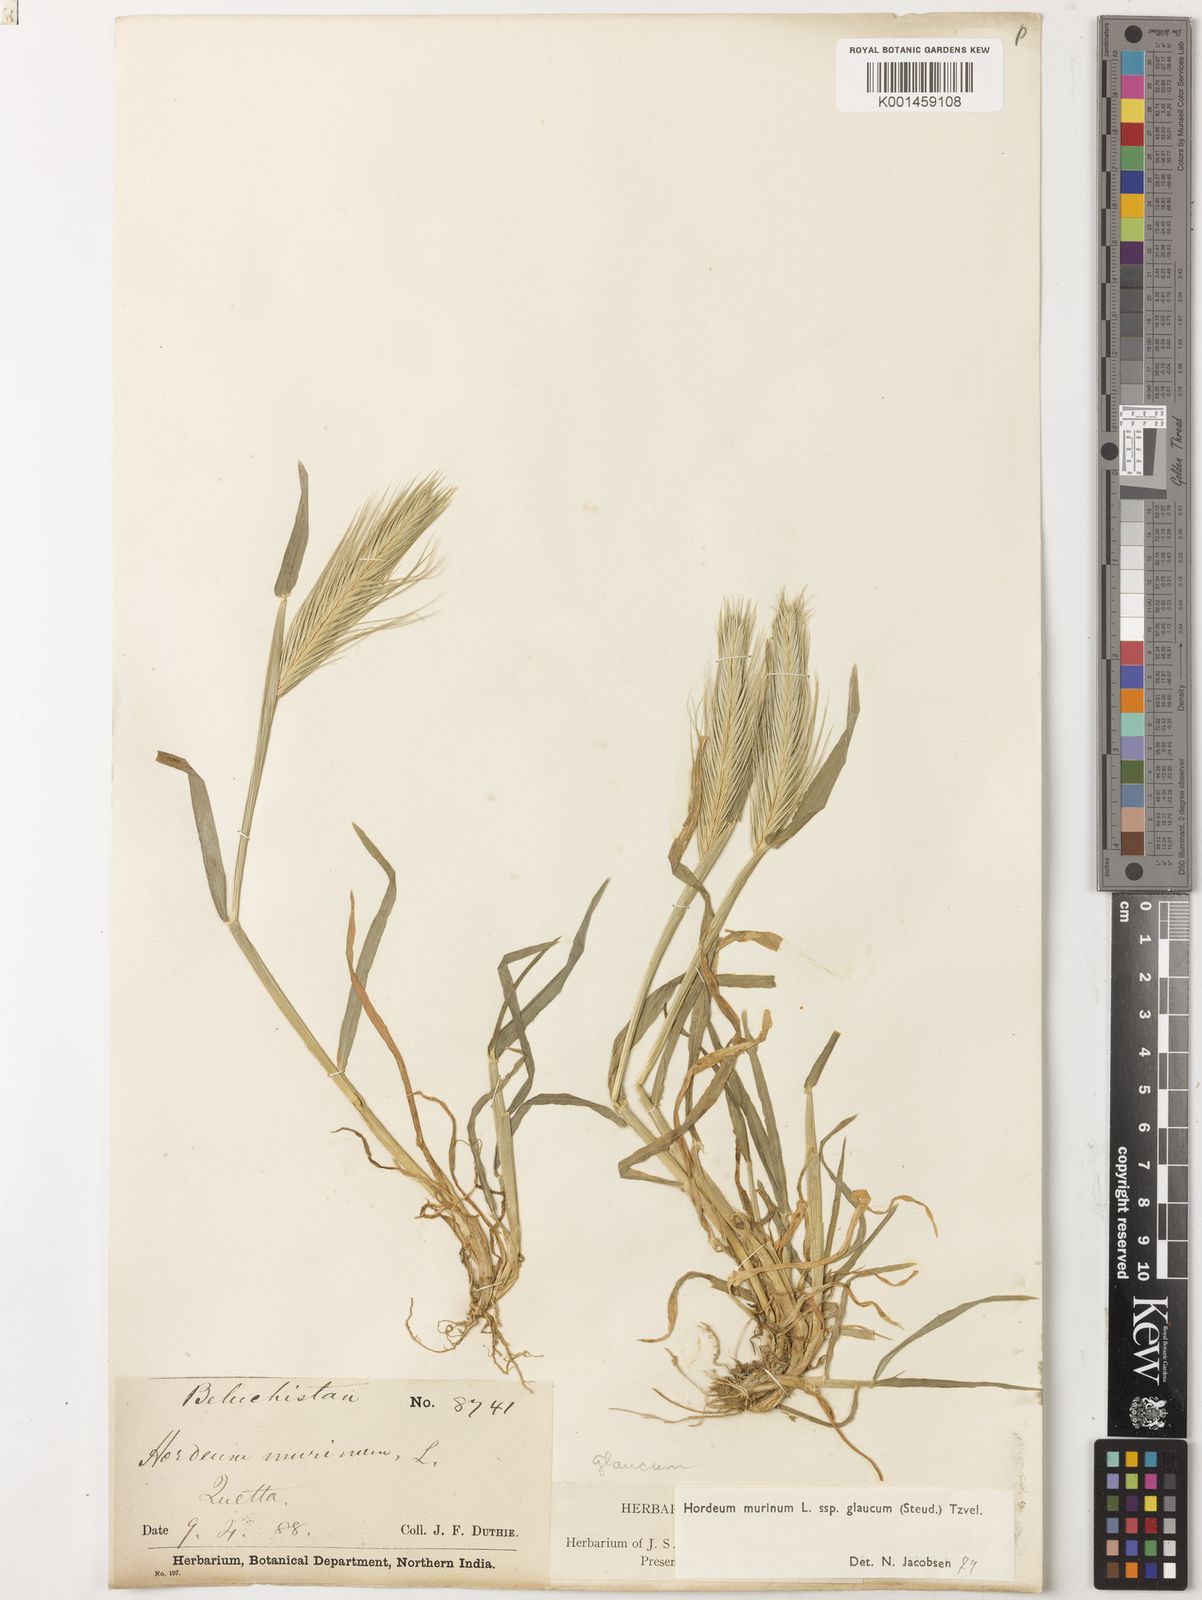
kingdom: Plantae
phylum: Tracheophyta
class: Liliopsida
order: Poales
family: Poaceae
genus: Hordeum
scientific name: Hordeum murinum
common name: Wall barley
